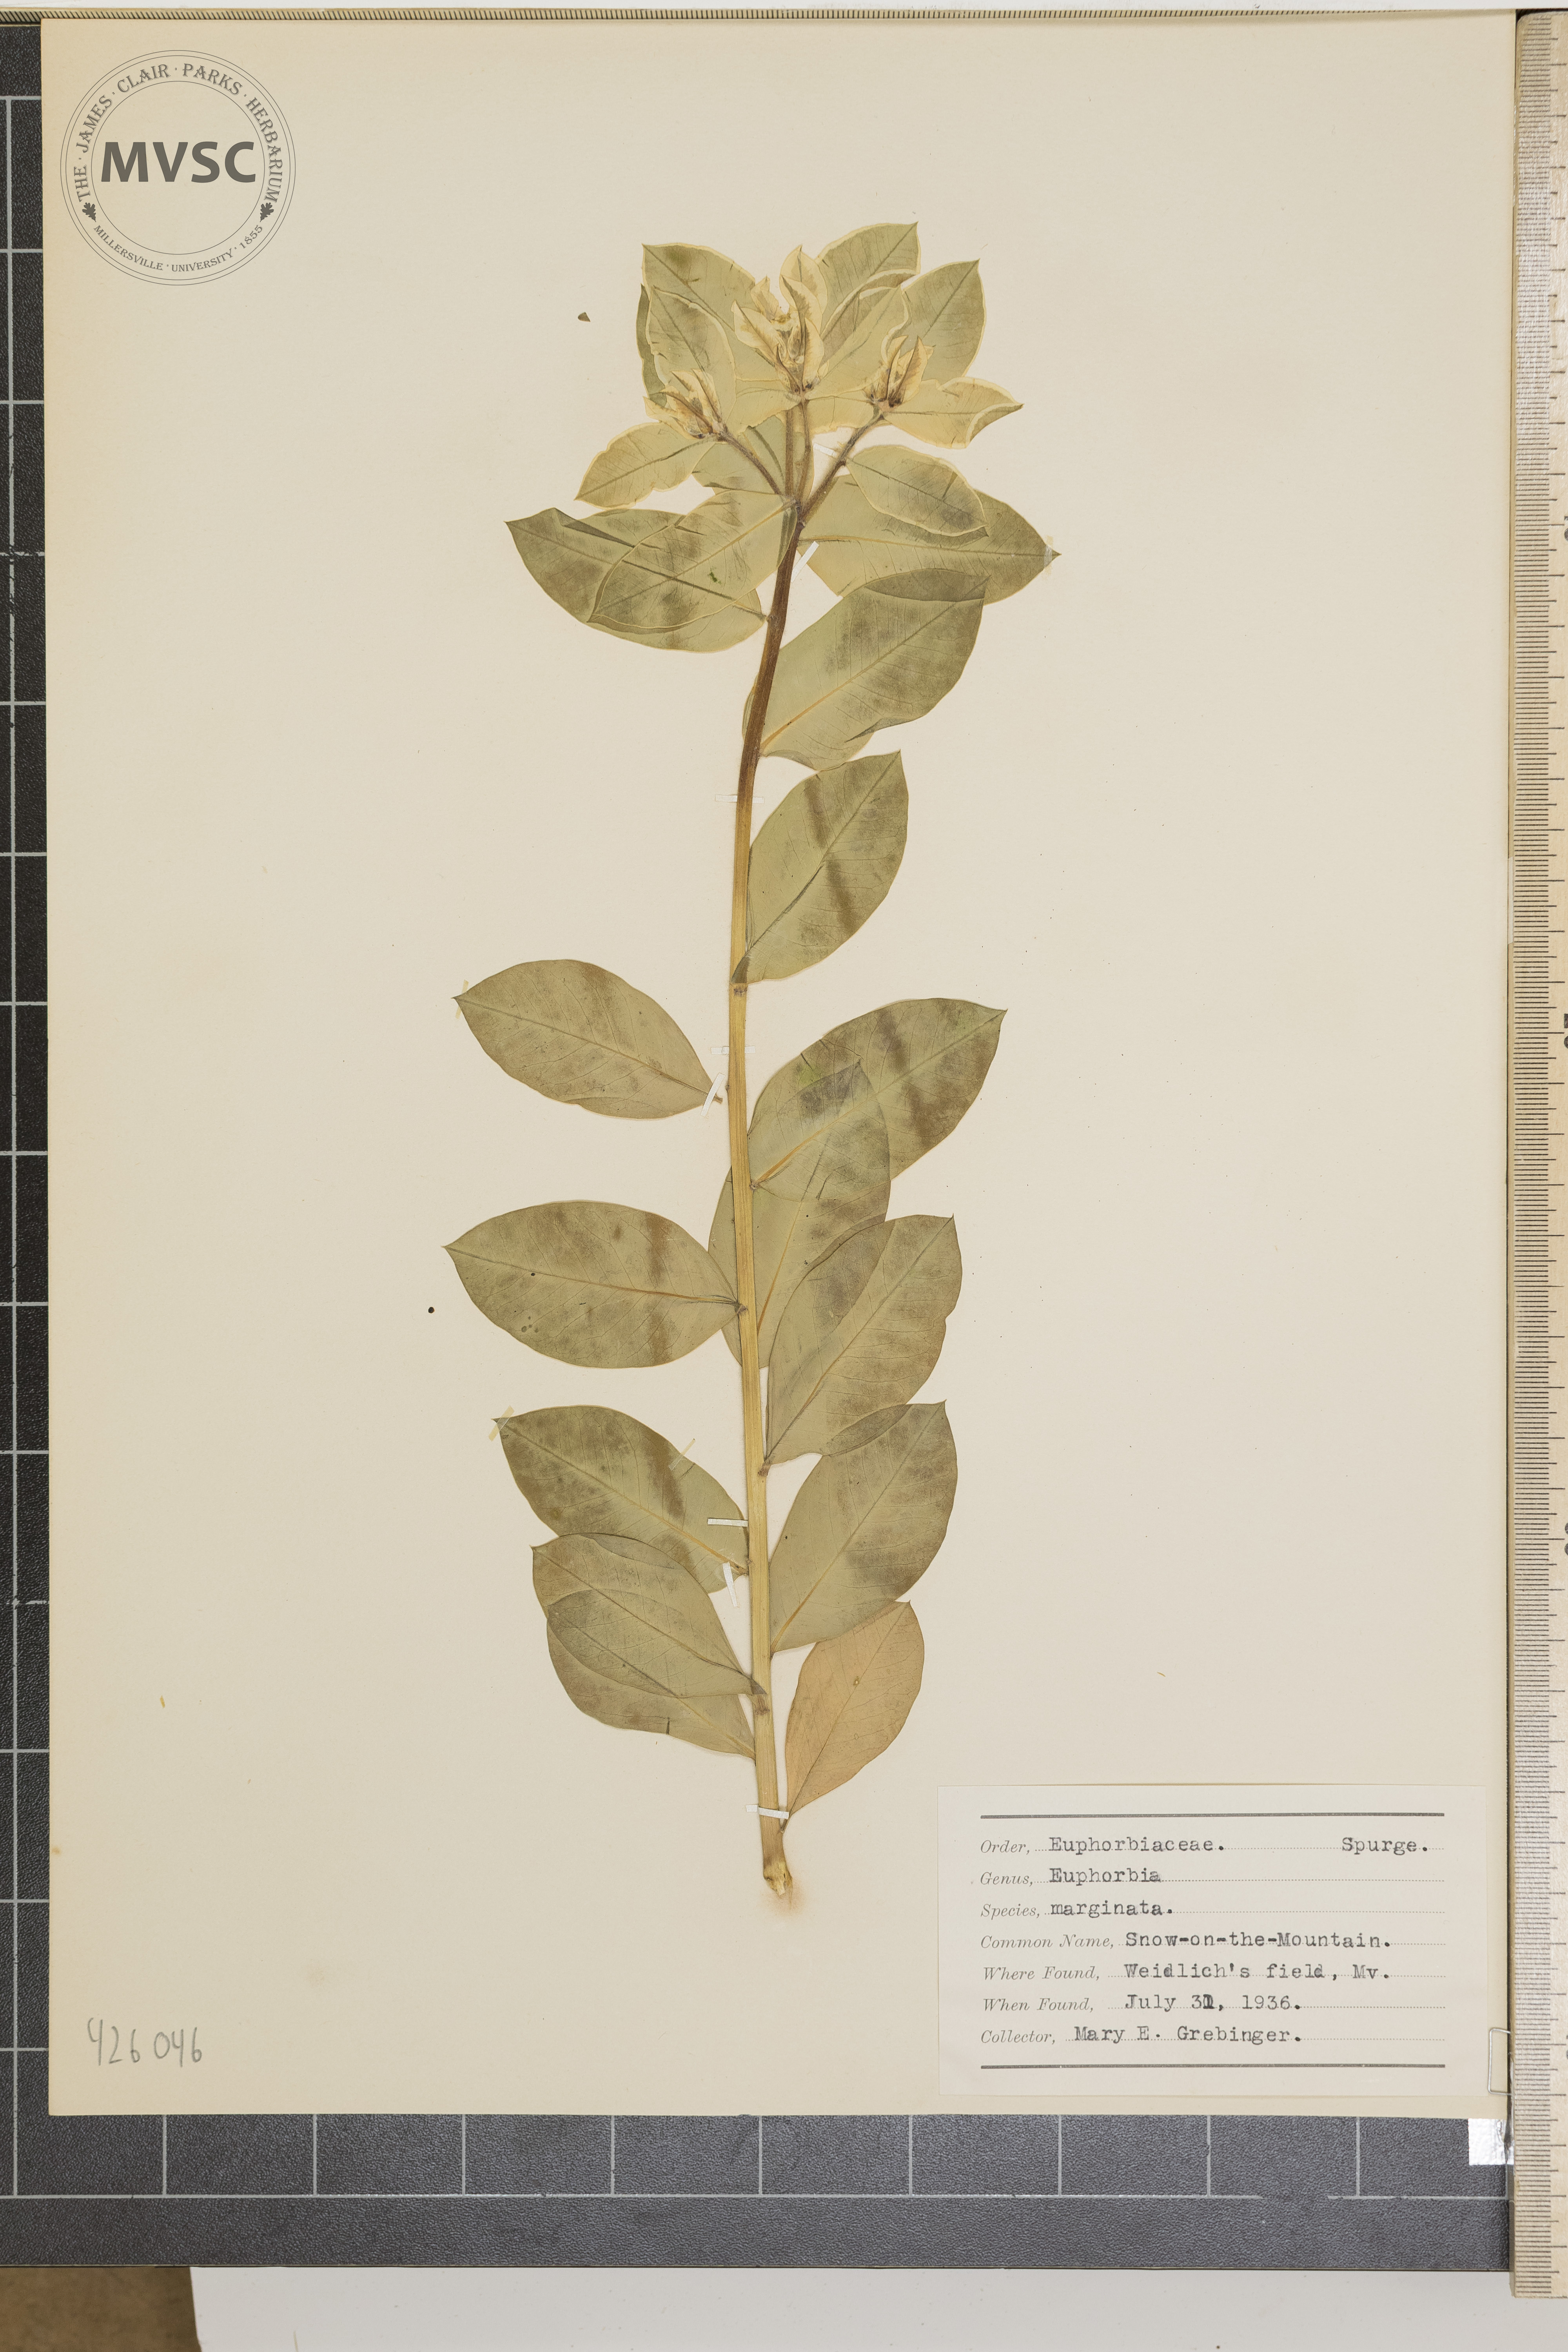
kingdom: Plantae
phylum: Tracheophyta
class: Magnoliopsida
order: Malpighiales
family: Euphorbiaceae
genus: Euphorbia
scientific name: Euphorbia marginata
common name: Snow-on-the-mountain
